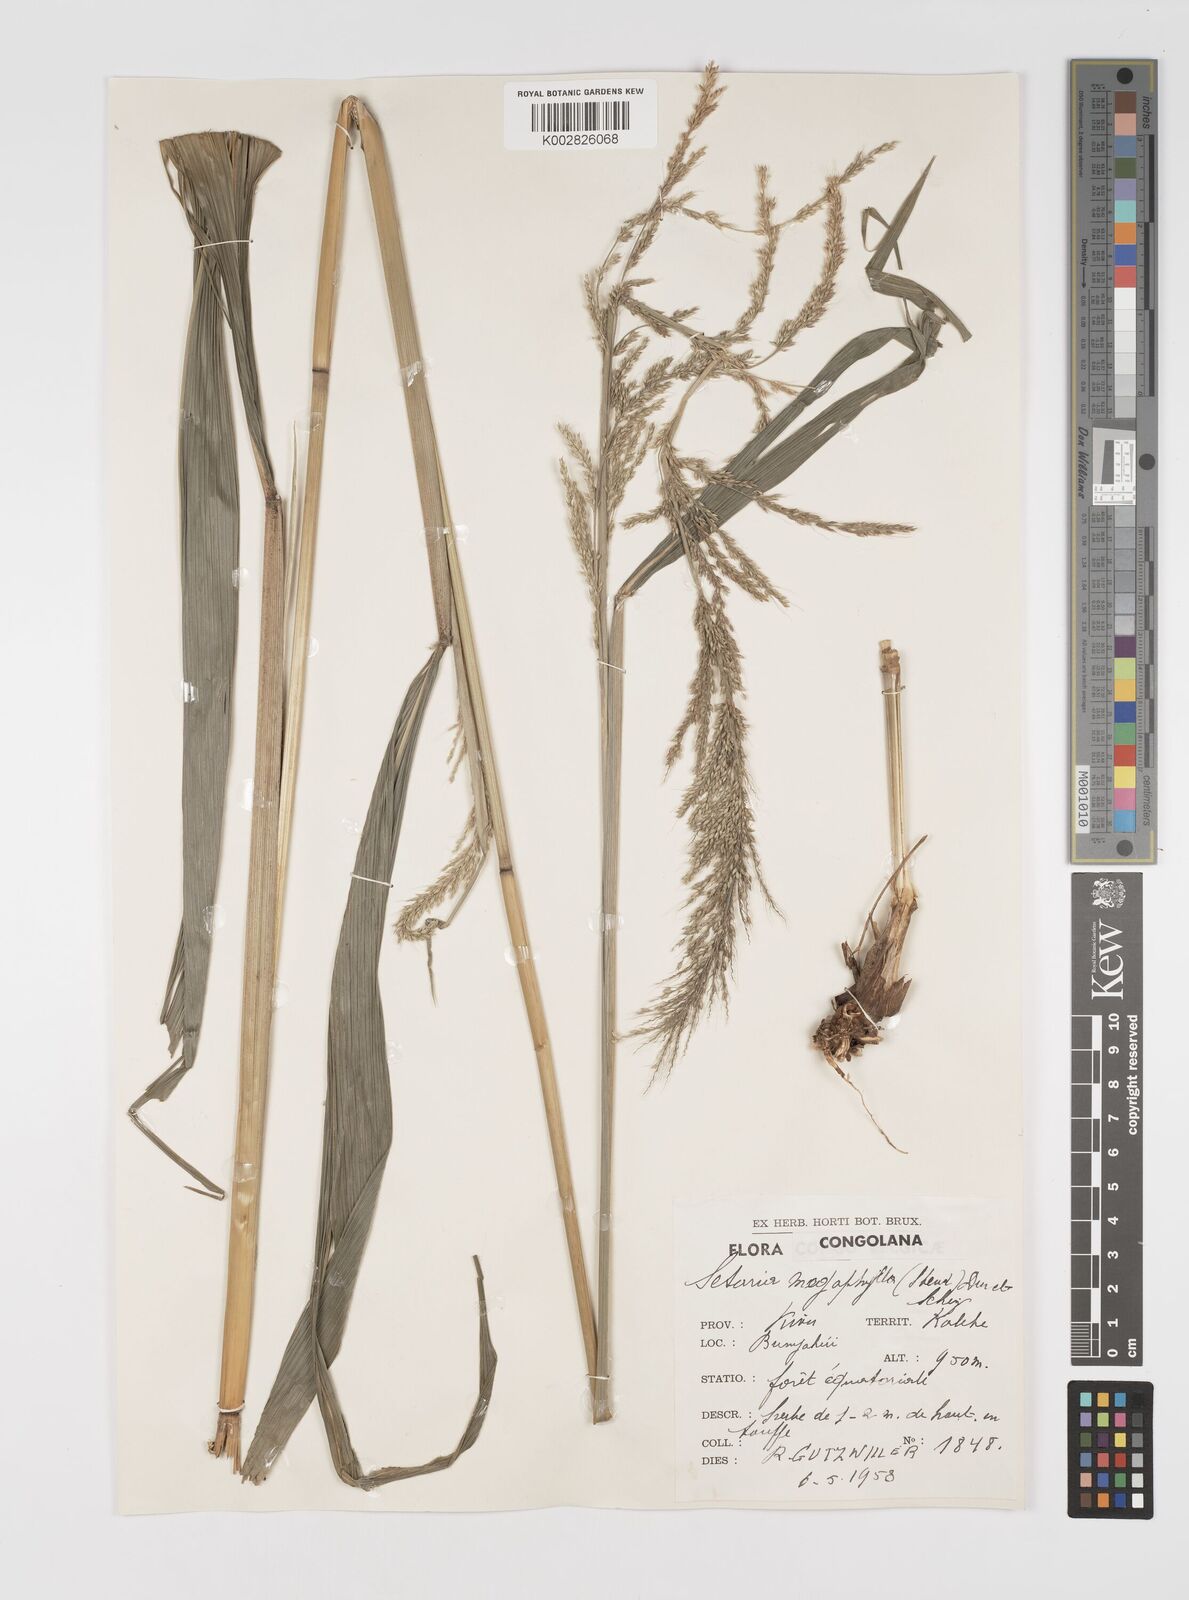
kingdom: Plantae
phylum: Tracheophyta
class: Liliopsida
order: Poales
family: Poaceae
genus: Setaria
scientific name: Setaria megaphylla
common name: Bigleaf bristlegrass
